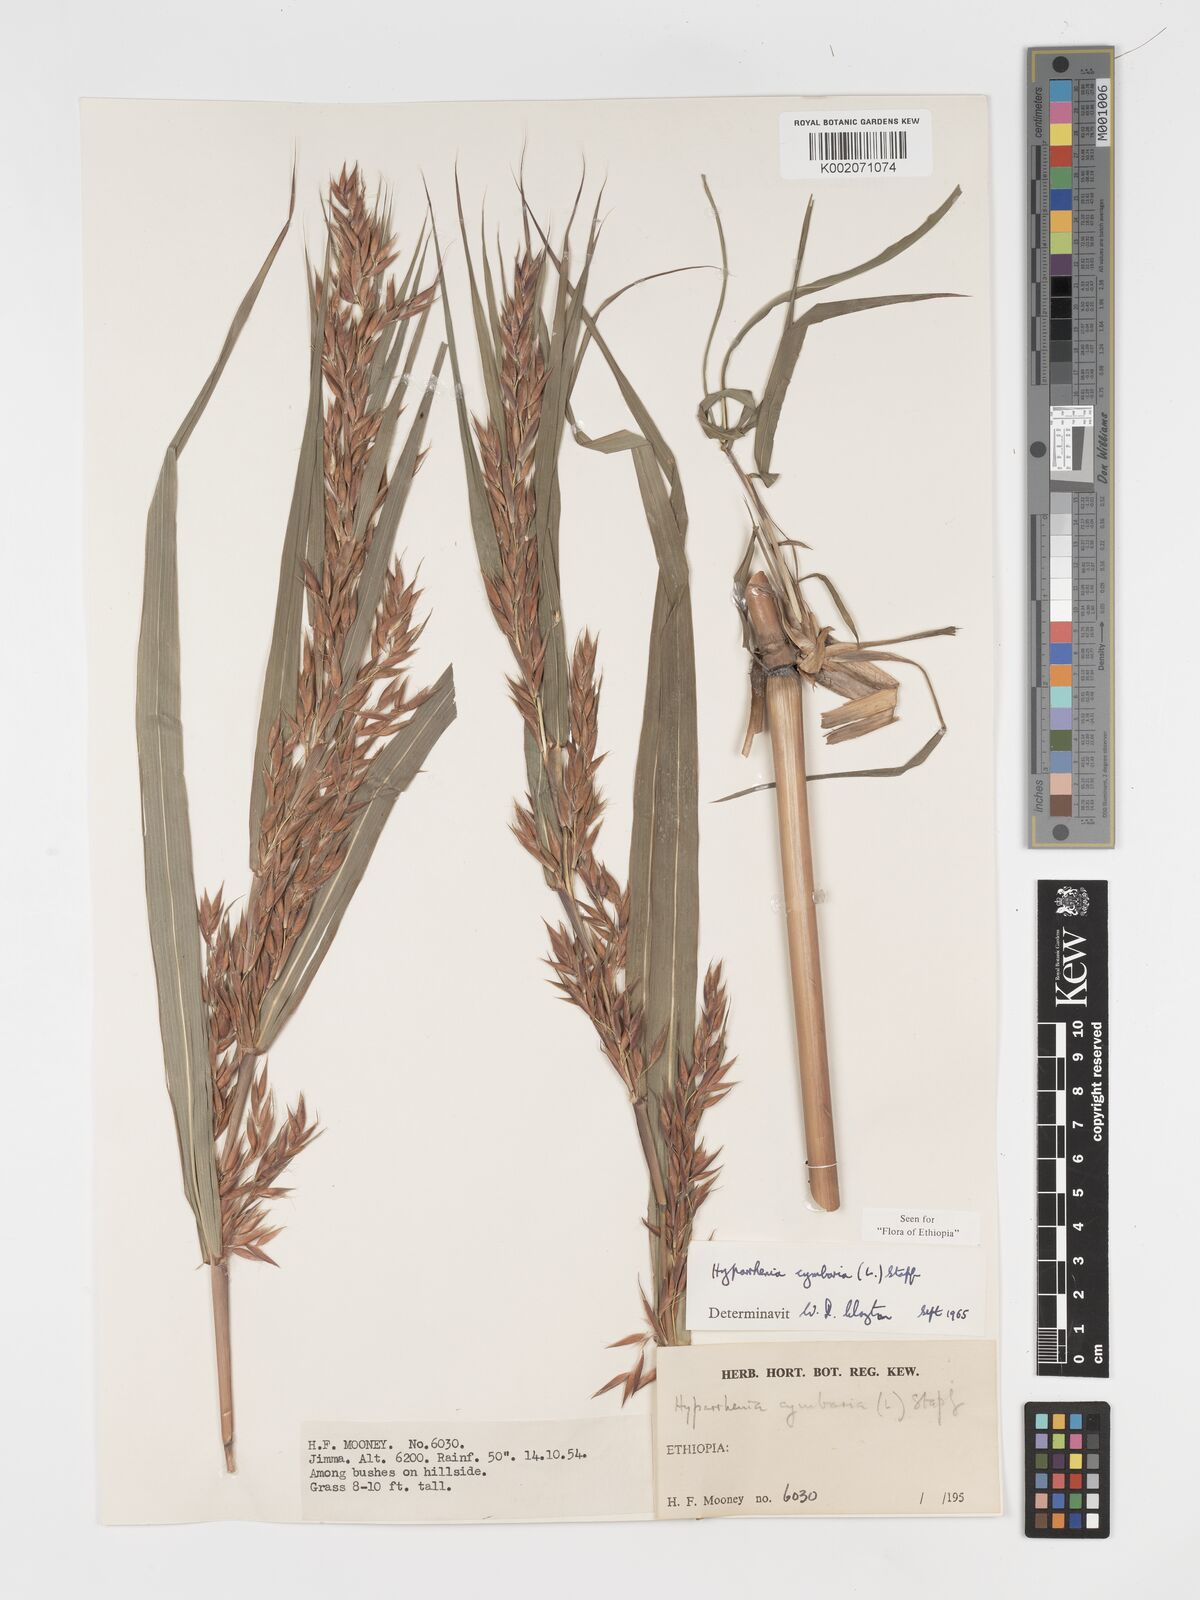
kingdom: Plantae
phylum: Tracheophyta
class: Liliopsida
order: Poales
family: Poaceae
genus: Hyparrhenia
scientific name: Hyparrhenia cymbaria
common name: Boat thatching grass
